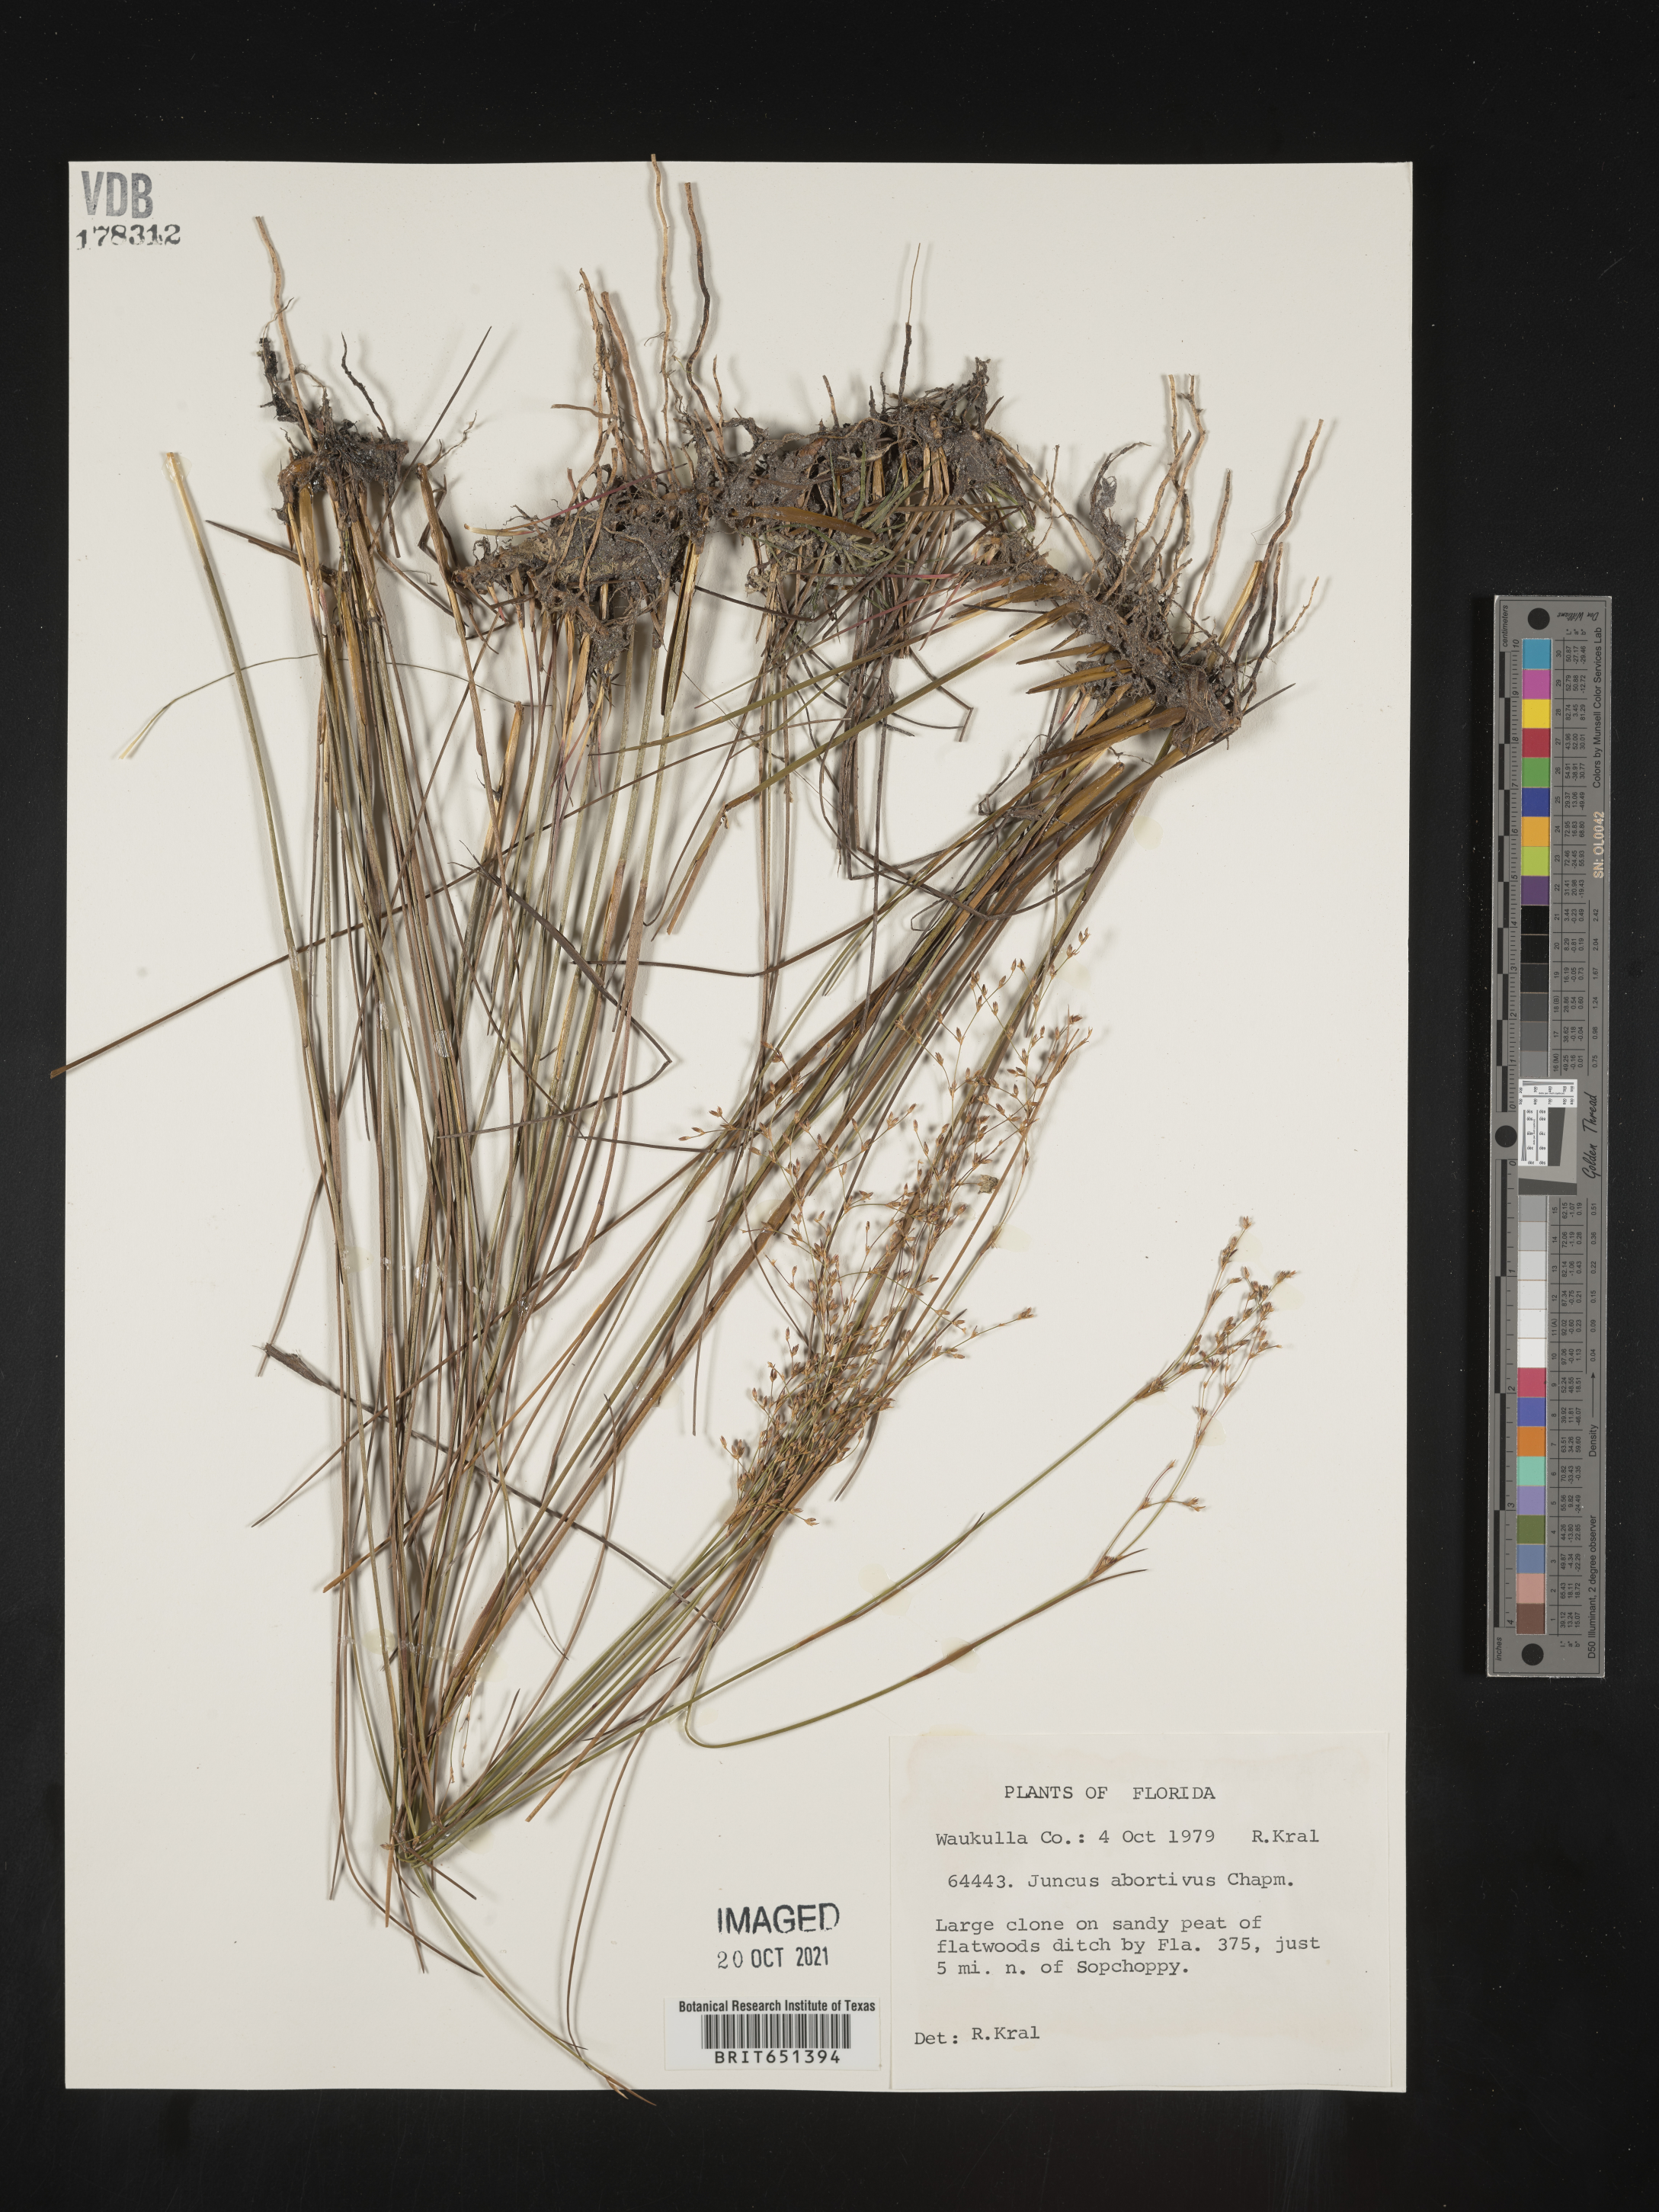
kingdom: Plantae
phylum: Tracheophyta
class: Liliopsida
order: Poales
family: Juncaceae
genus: Juncus
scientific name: Juncus abortivus
